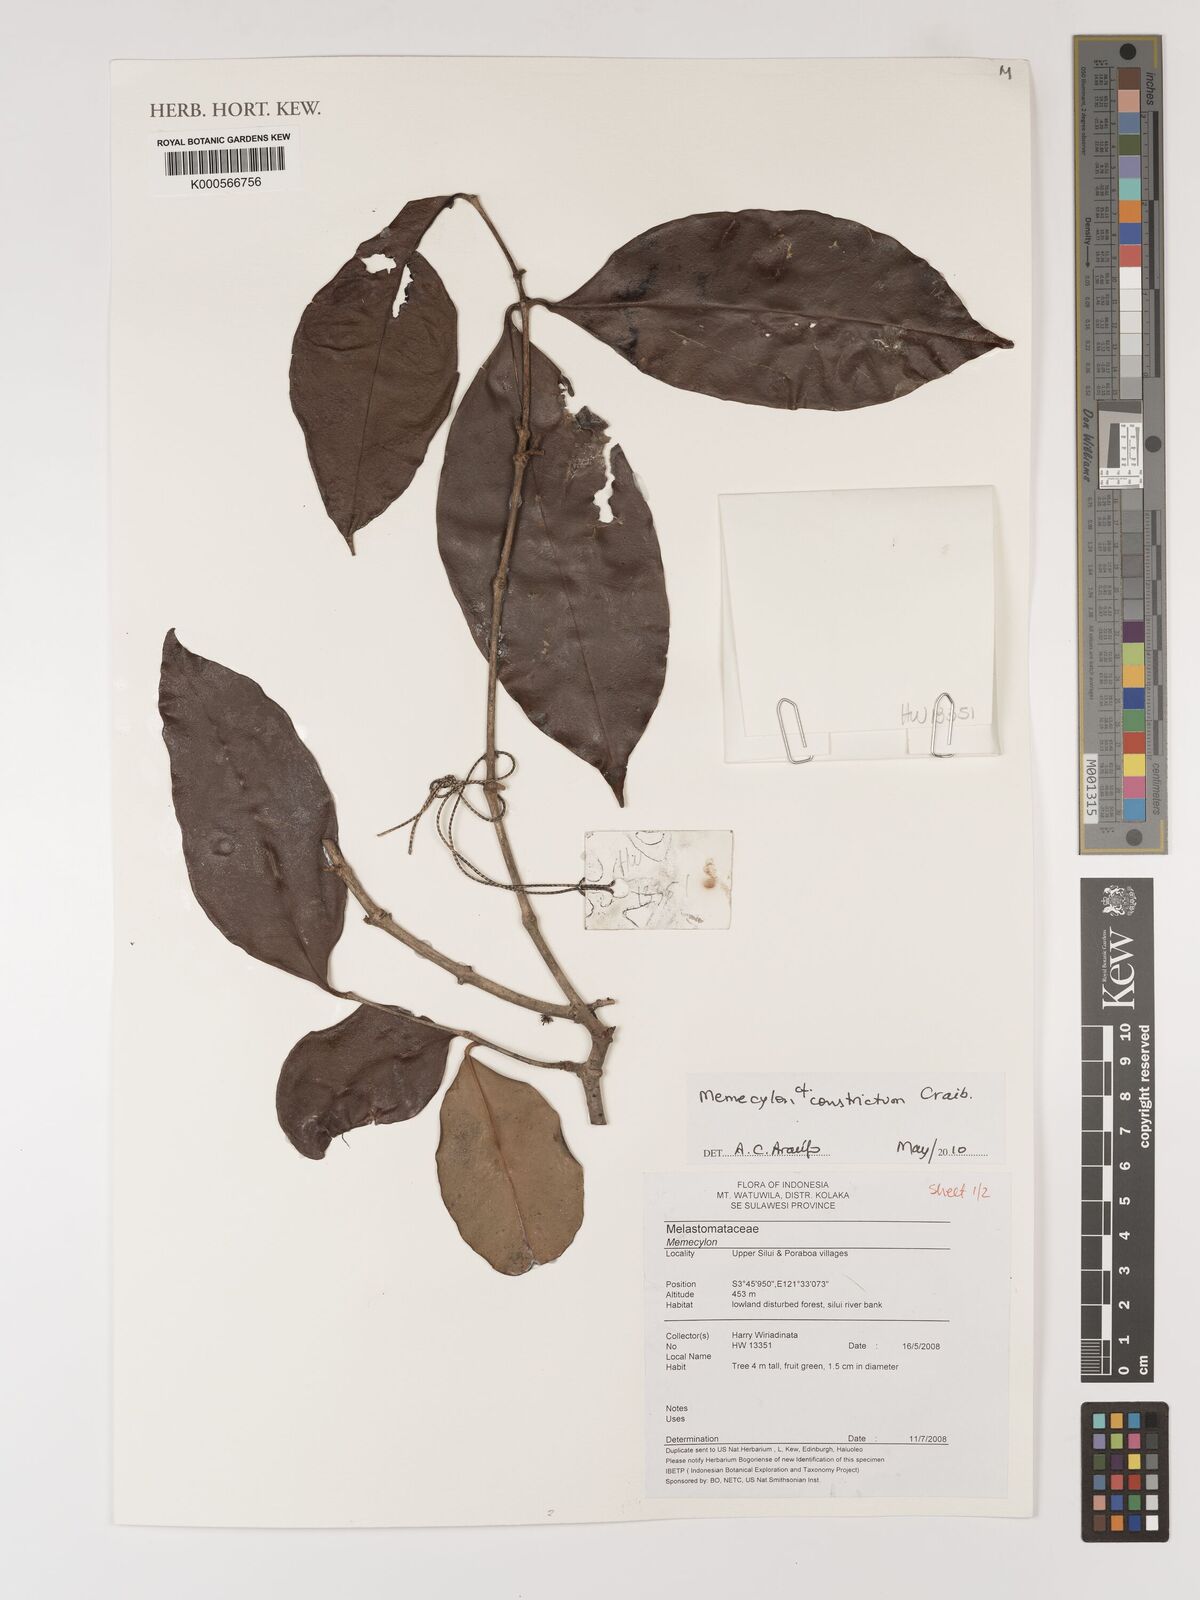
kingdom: Plantae
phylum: Tracheophyta
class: Magnoliopsida
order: Myrtales
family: Melastomataceae
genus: Memecylon
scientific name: Memecylon constrictum
